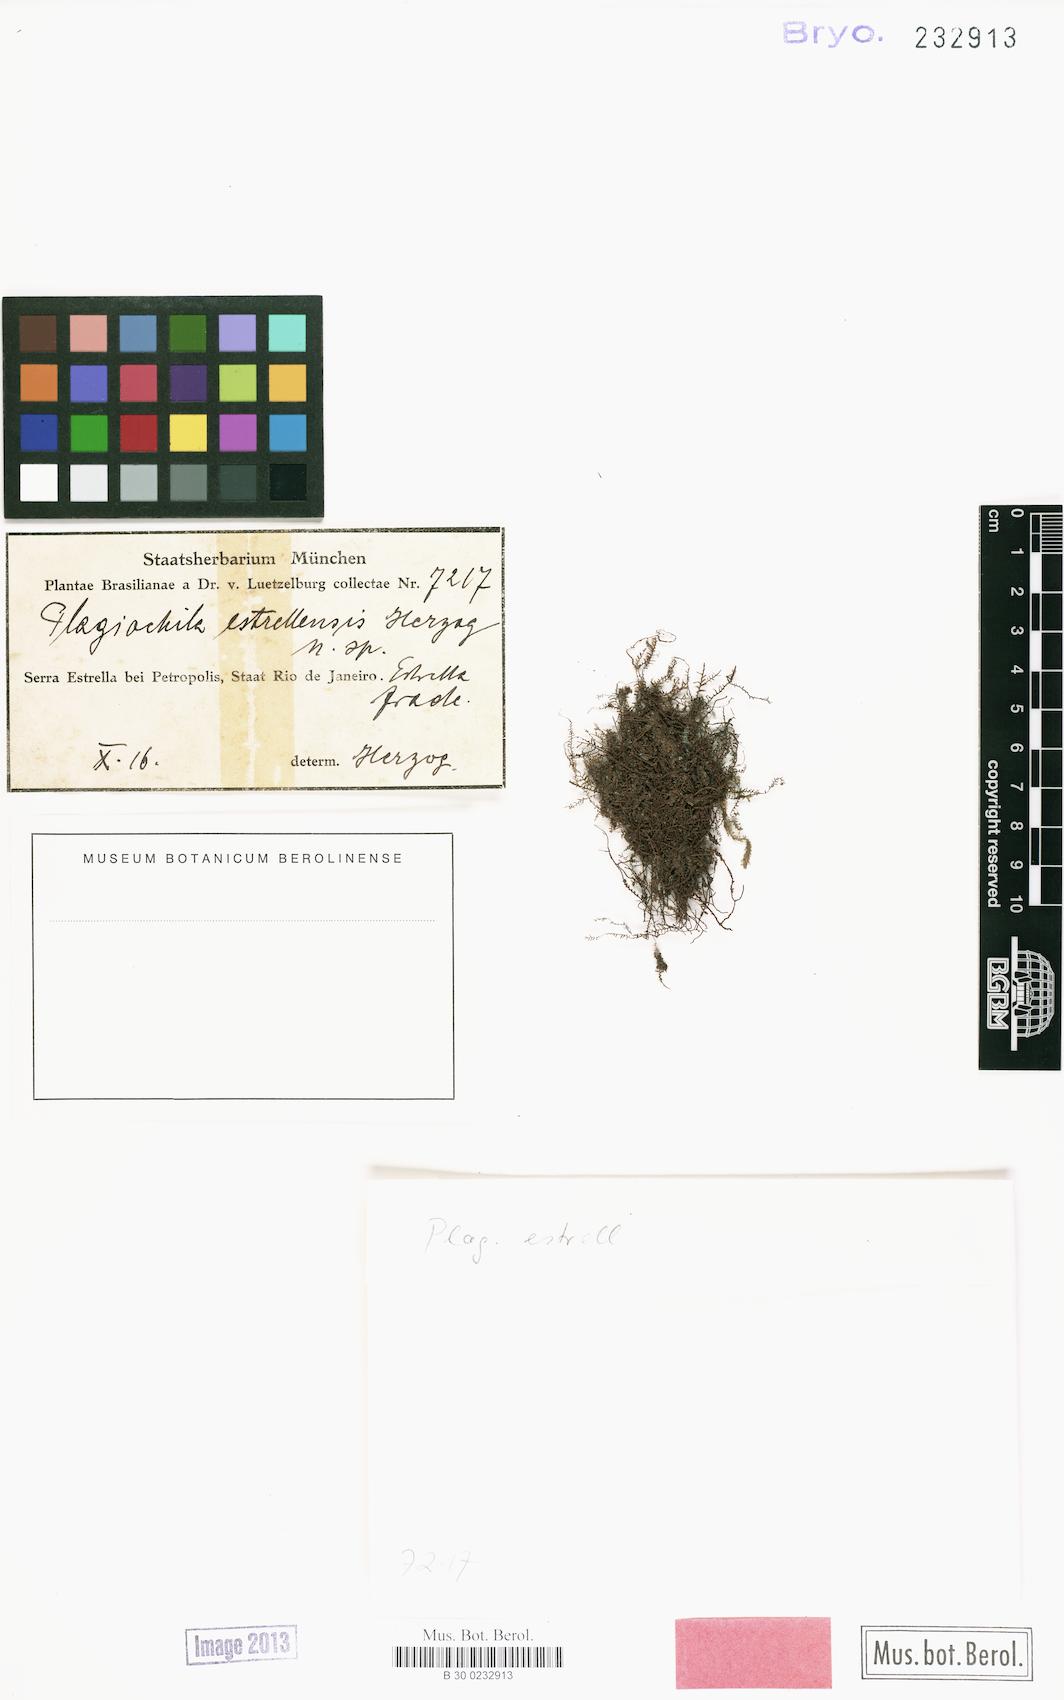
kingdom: Plantae
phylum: Marchantiophyta
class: Jungermanniopsida
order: Jungermanniales
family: Plagiochilaceae
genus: Plagiochila
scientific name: Plagiochila estrellensis
